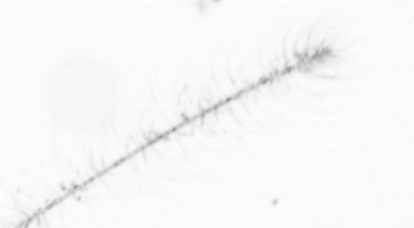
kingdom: Chromista
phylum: Ochrophyta
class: Bacillariophyceae
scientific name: Bacillariophyceae
